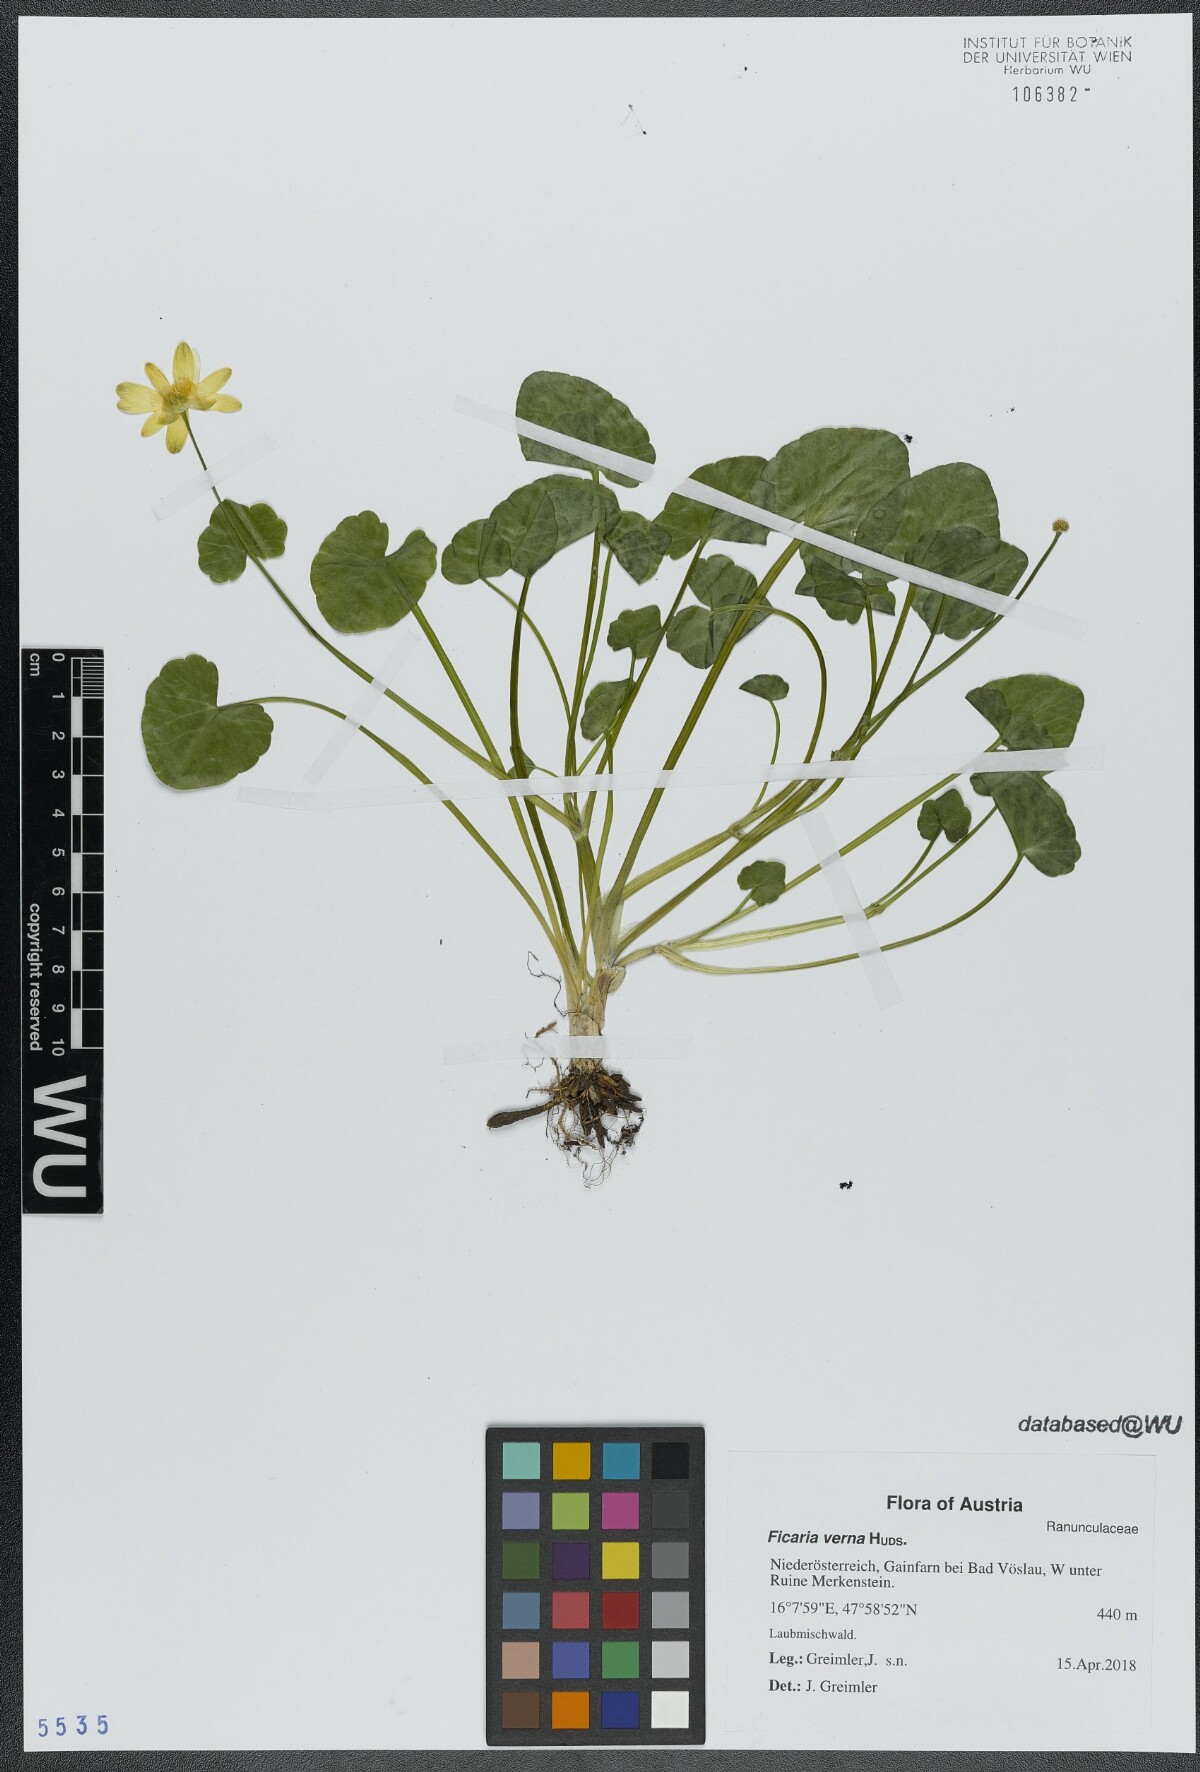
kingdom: Plantae
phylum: Tracheophyta
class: Magnoliopsida
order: Ranunculales
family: Ranunculaceae
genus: Ficaria
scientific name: Ficaria verna
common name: Lesser celandine
